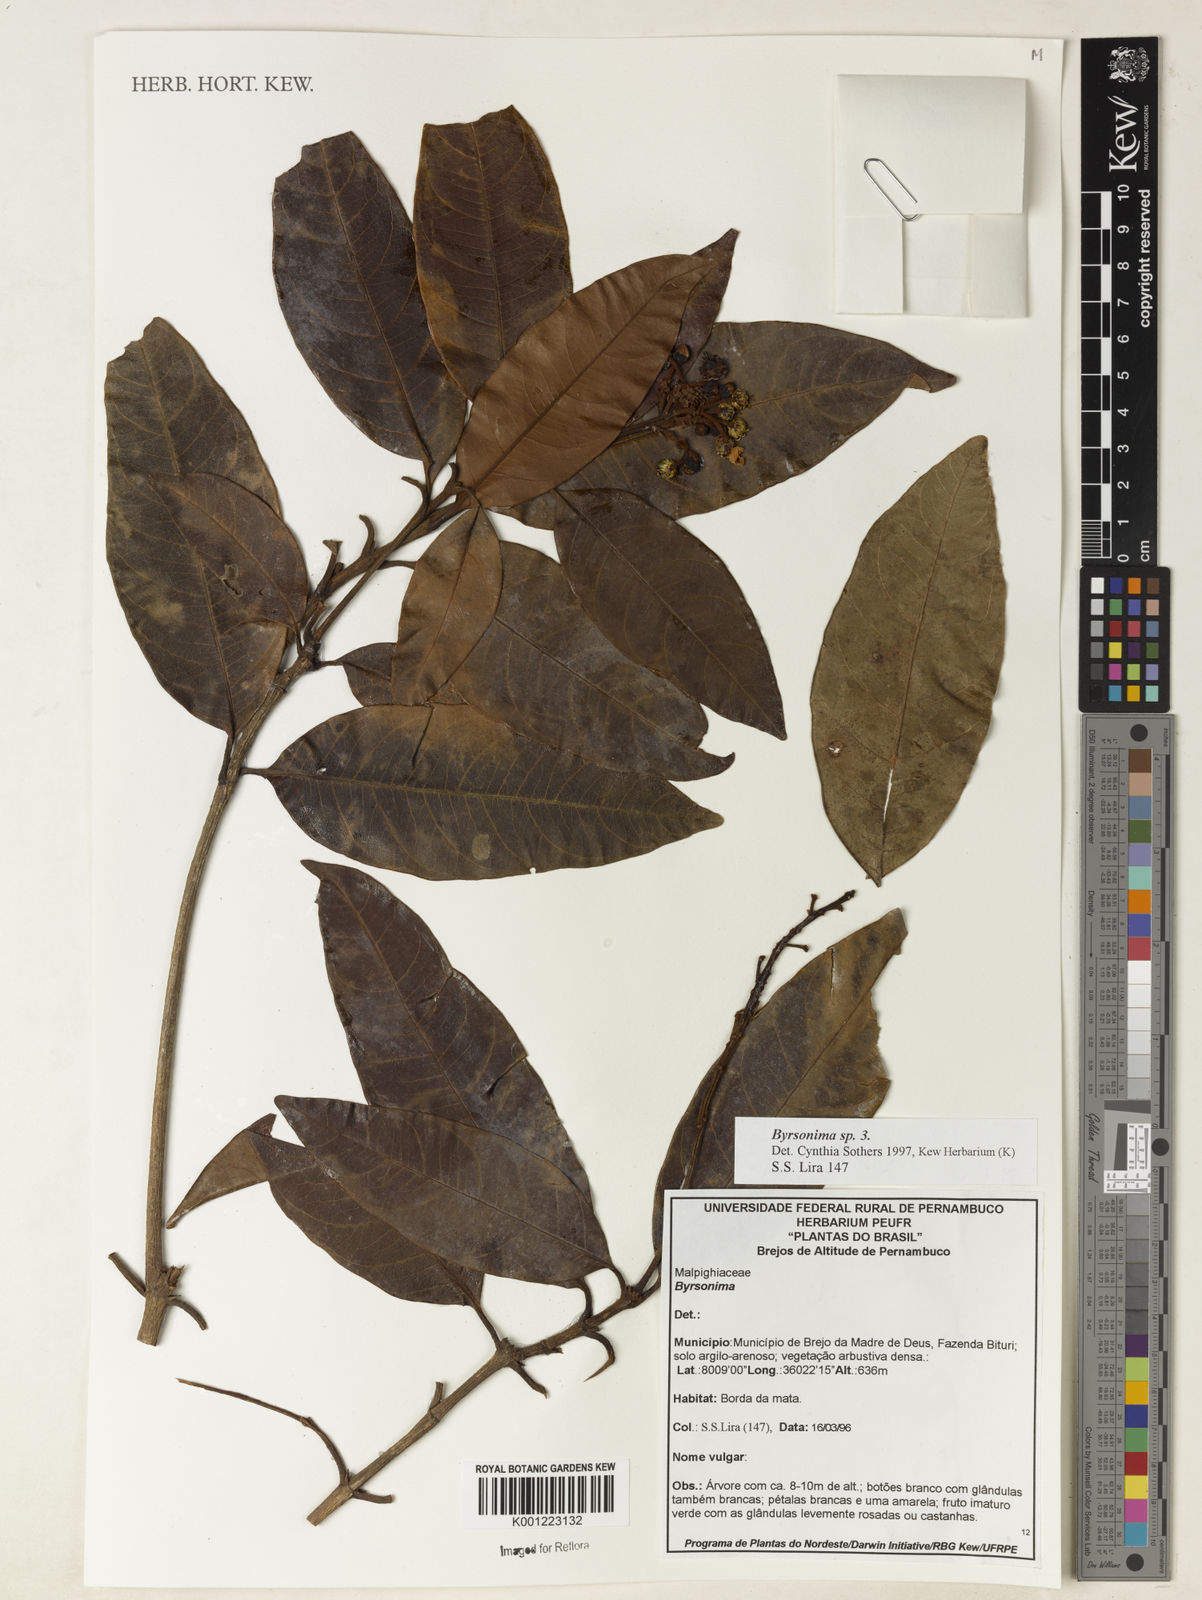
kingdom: Plantae
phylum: Tracheophyta
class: Magnoliopsida
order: Malpighiales
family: Malpighiaceae
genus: Byrsonima
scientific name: Byrsonima
